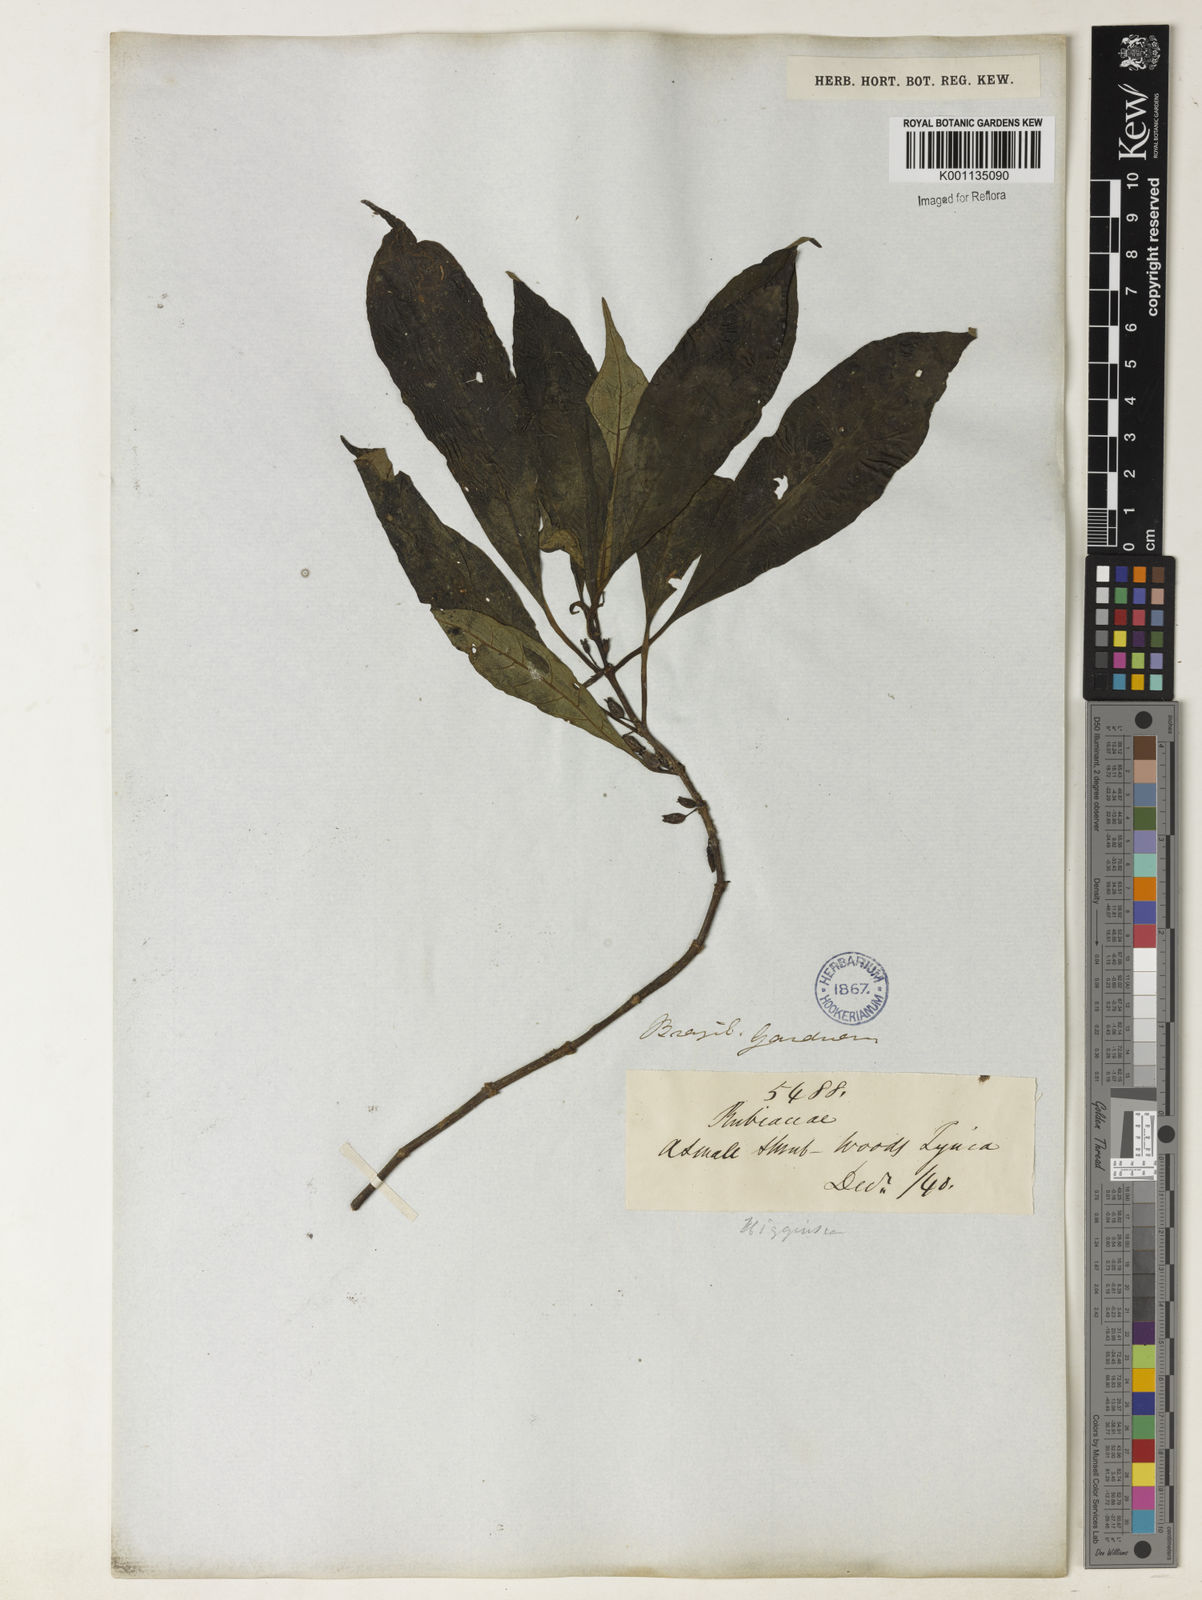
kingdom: Plantae
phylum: Tracheophyta
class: Magnoliopsida
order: Gentianales
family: Rubiaceae
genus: Hoffmannia
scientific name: Hoffmannia peckii
